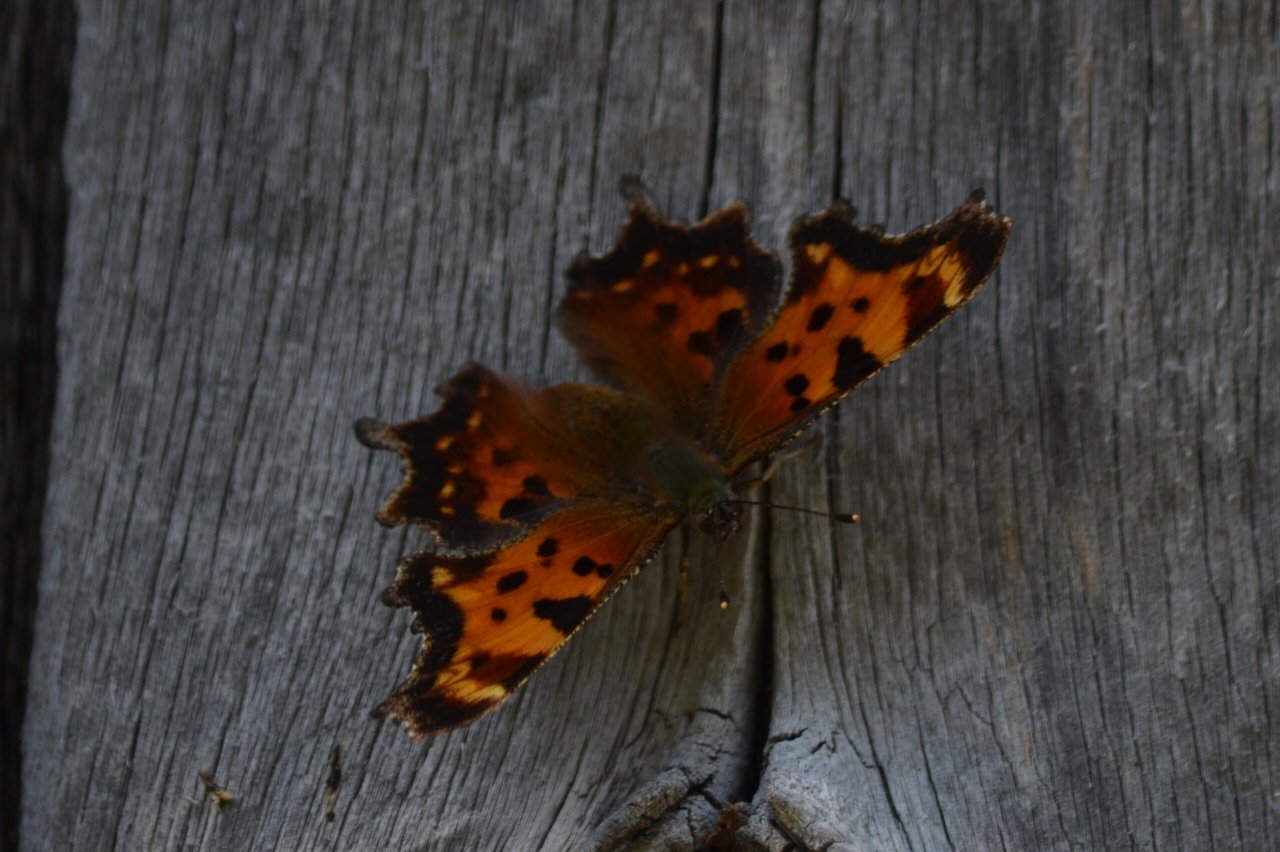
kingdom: Animalia
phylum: Arthropoda
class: Insecta
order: Lepidoptera
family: Nymphalidae
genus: Polygonia
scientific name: Polygonia faunus
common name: Green Comma
